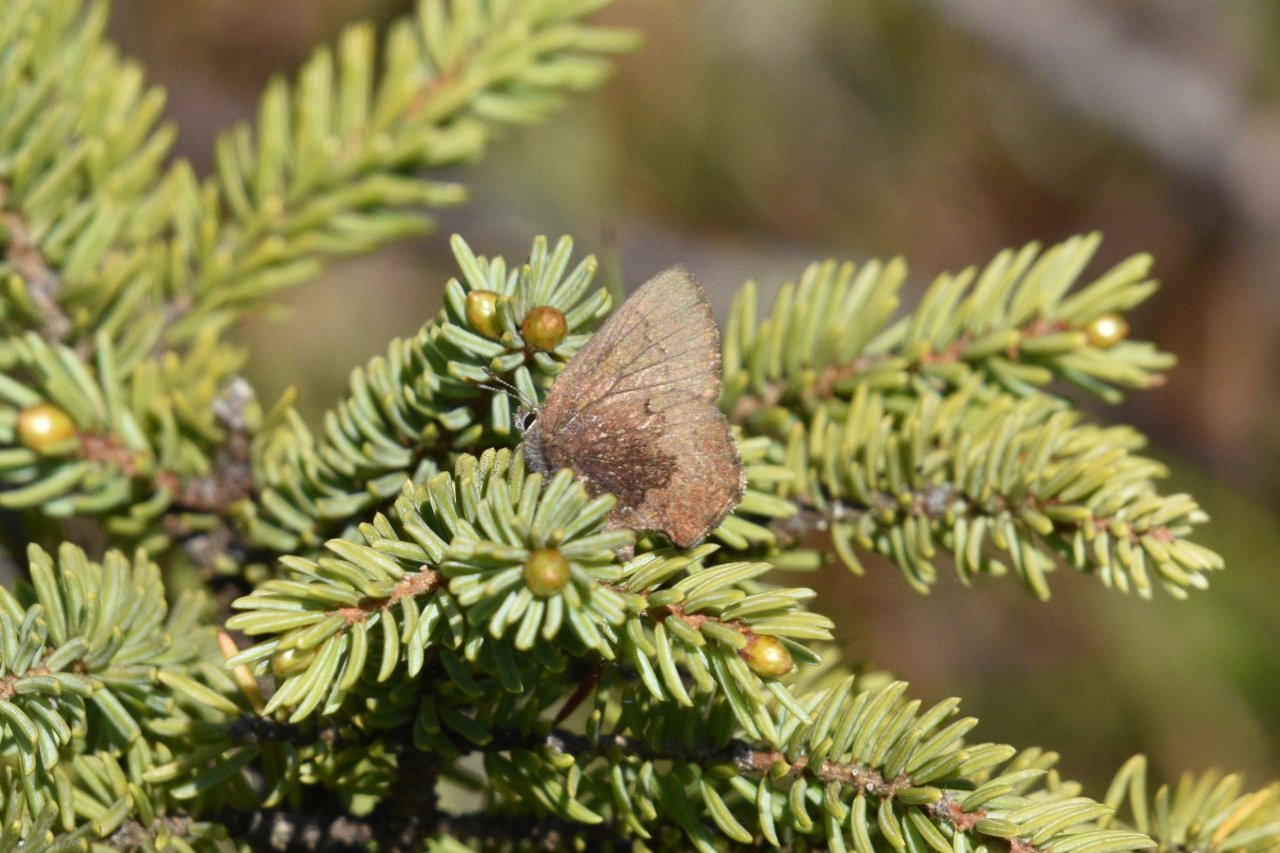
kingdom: Animalia
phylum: Arthropoda
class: Insecta
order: Lepidoptera
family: Lycaenidae
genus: Incisalia
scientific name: Incisalia irioides
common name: Brown Elfin
